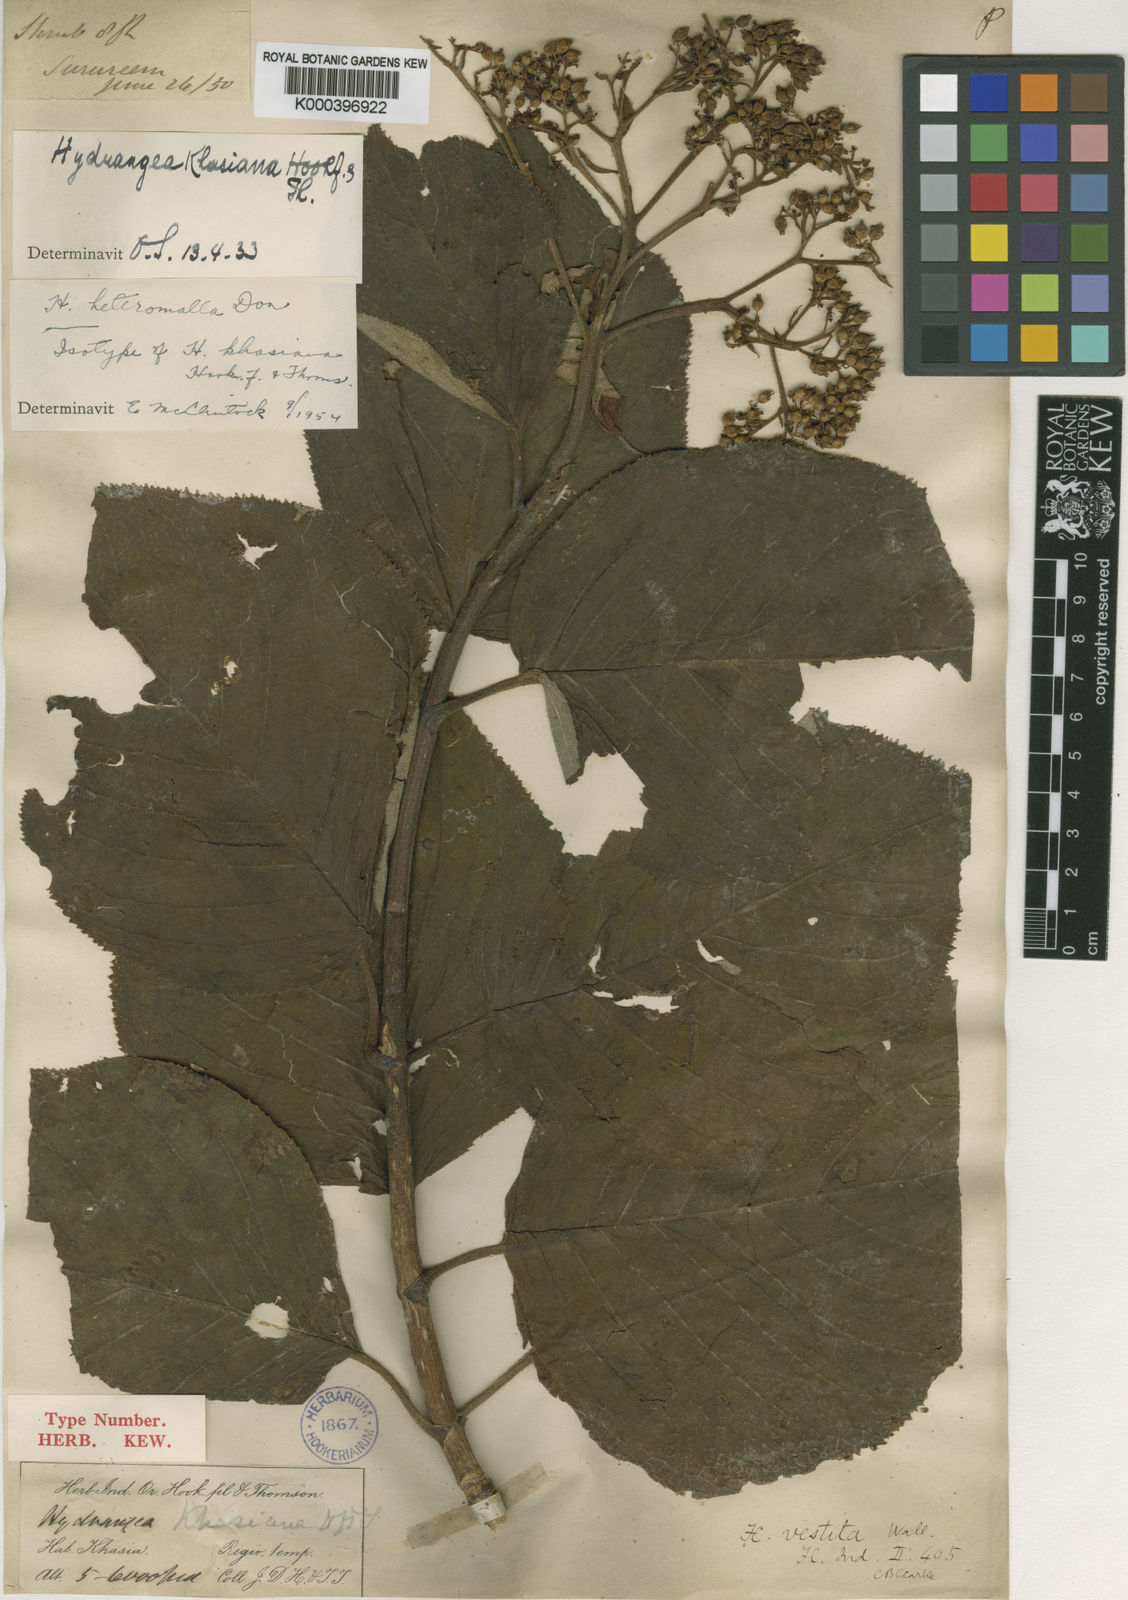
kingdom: Plantae
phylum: Tracheophyta
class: Magnoliopsida
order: Cornales
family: Hydrangeaceae
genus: Hydrangea
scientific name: Hydrangea heteromalla
